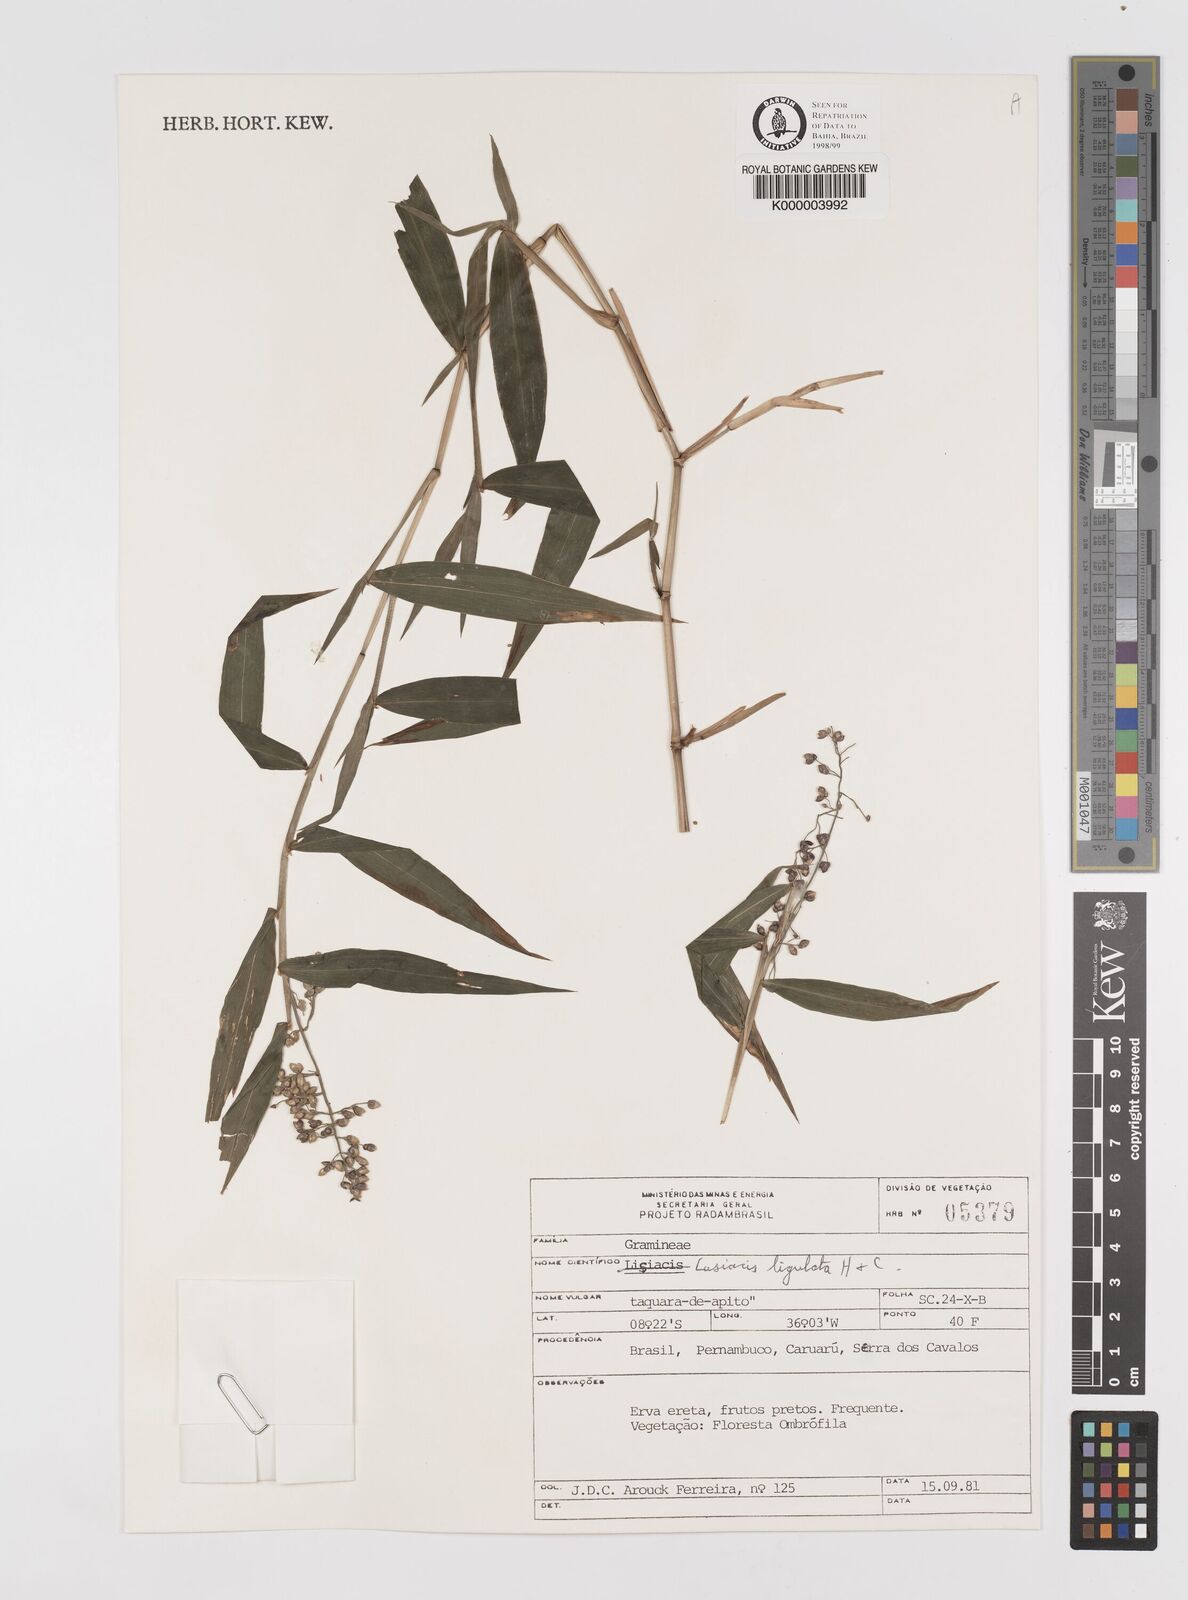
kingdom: Plantae
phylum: Tracheophyta
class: Liliopsida
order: Poales
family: Poaceae
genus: Lasiacis
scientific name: Lasiacis ligulata
